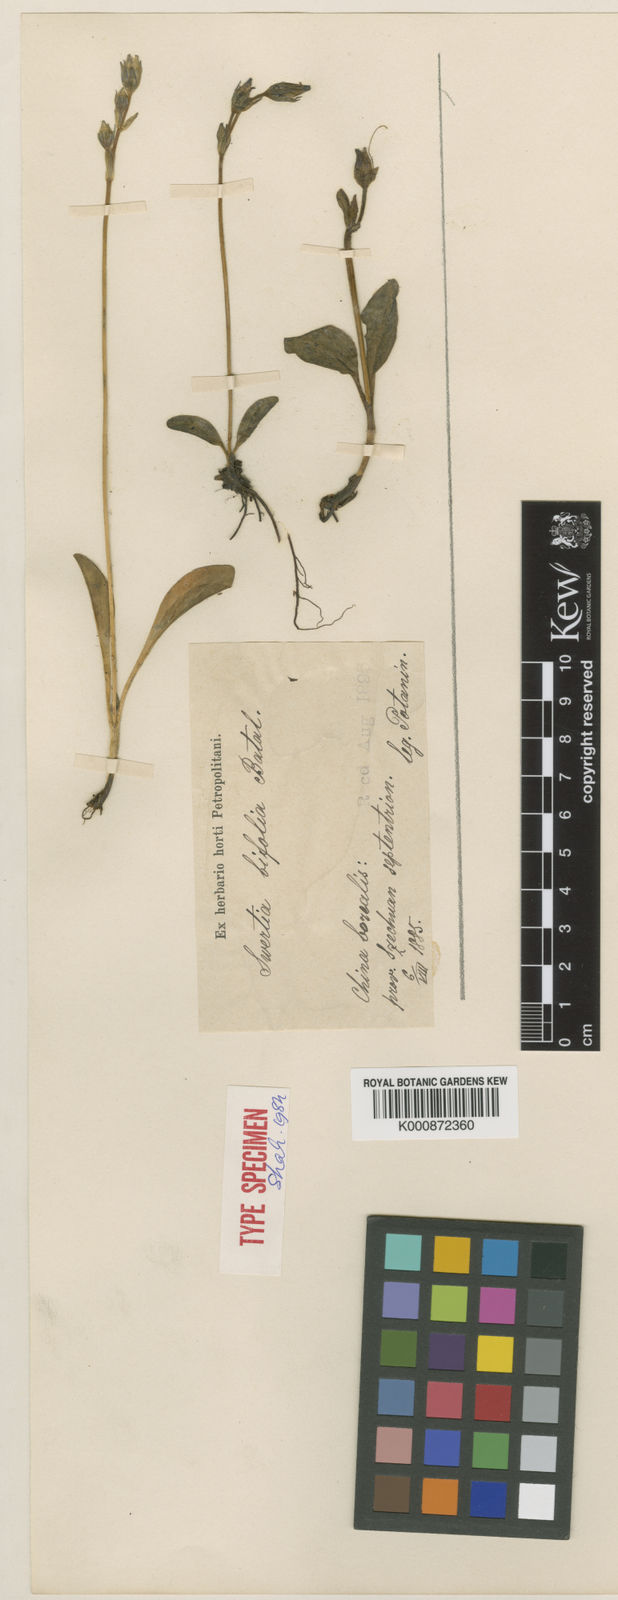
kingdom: Plantae
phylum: Tracheophyta
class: Magnoliopsida
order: Gentianales
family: Gentianaceae
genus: Swertia
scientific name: Swertia bifolia
